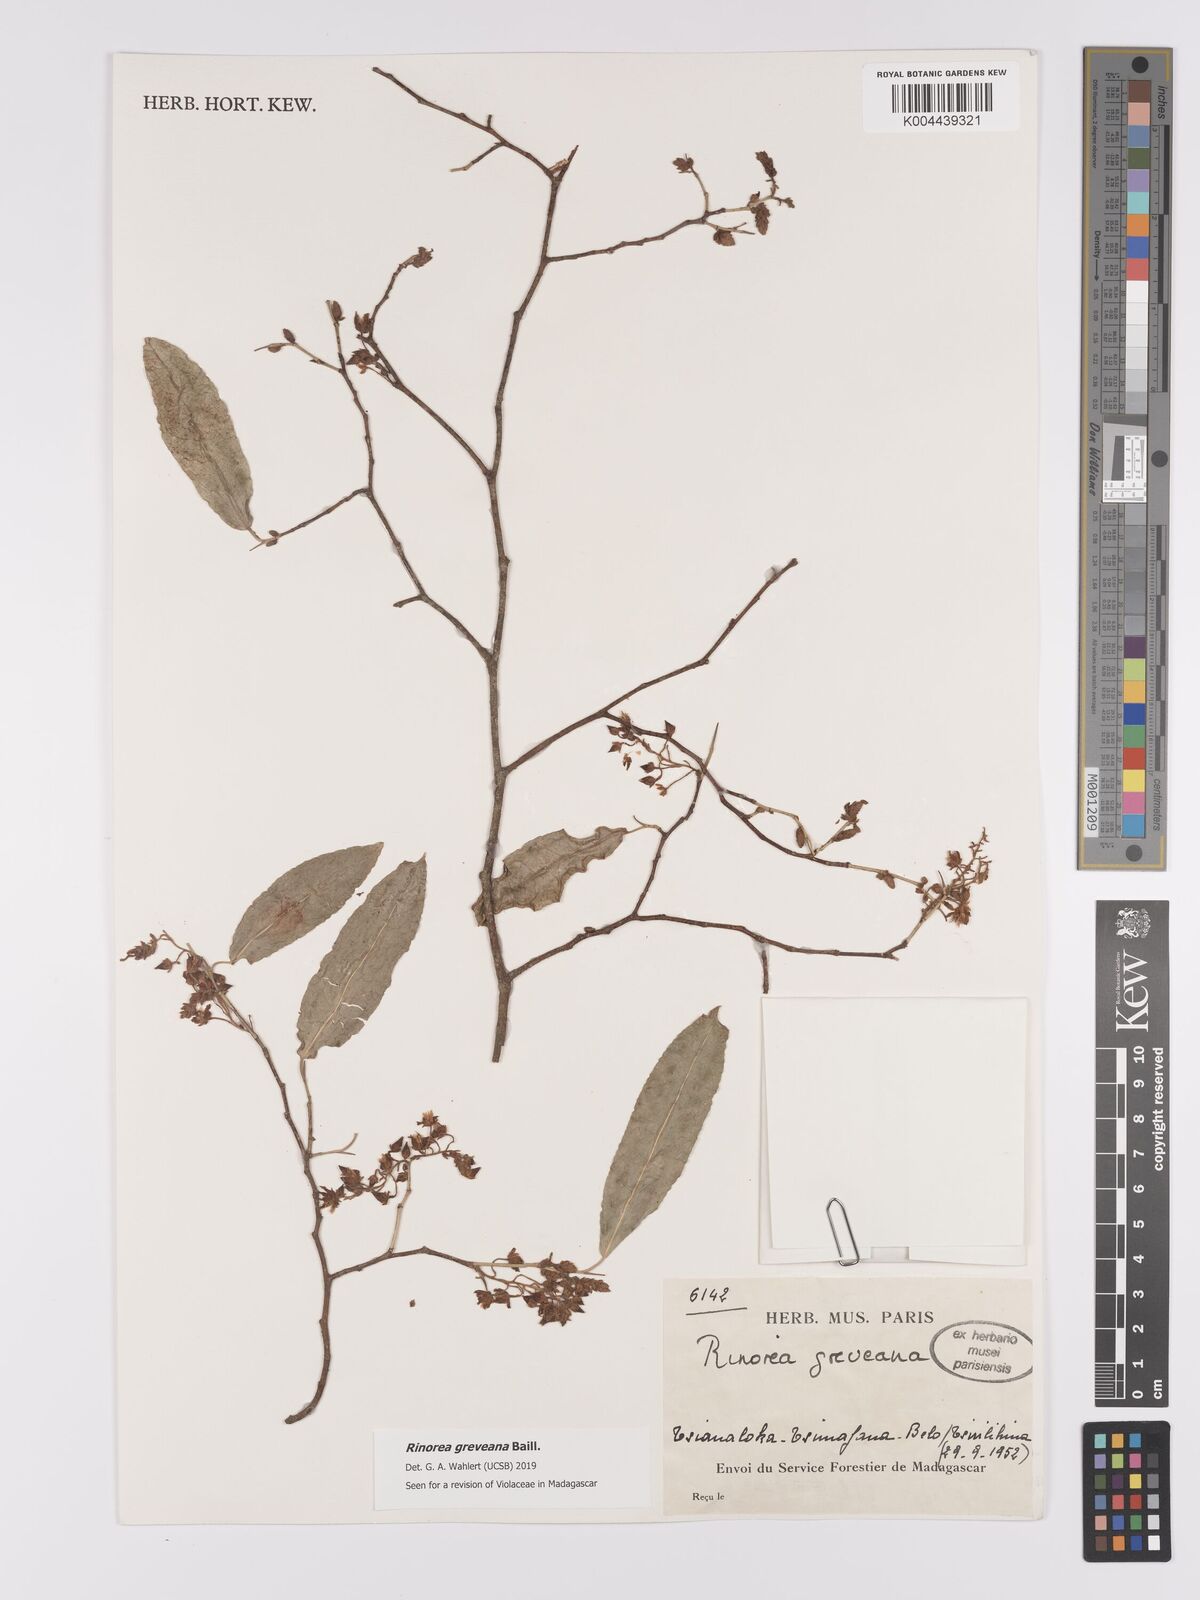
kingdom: Plantae
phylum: Tracheophyta
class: Magnoliopsida
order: Malpighiales
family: Violaceae
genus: Rinorea
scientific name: Rinorea greveana
